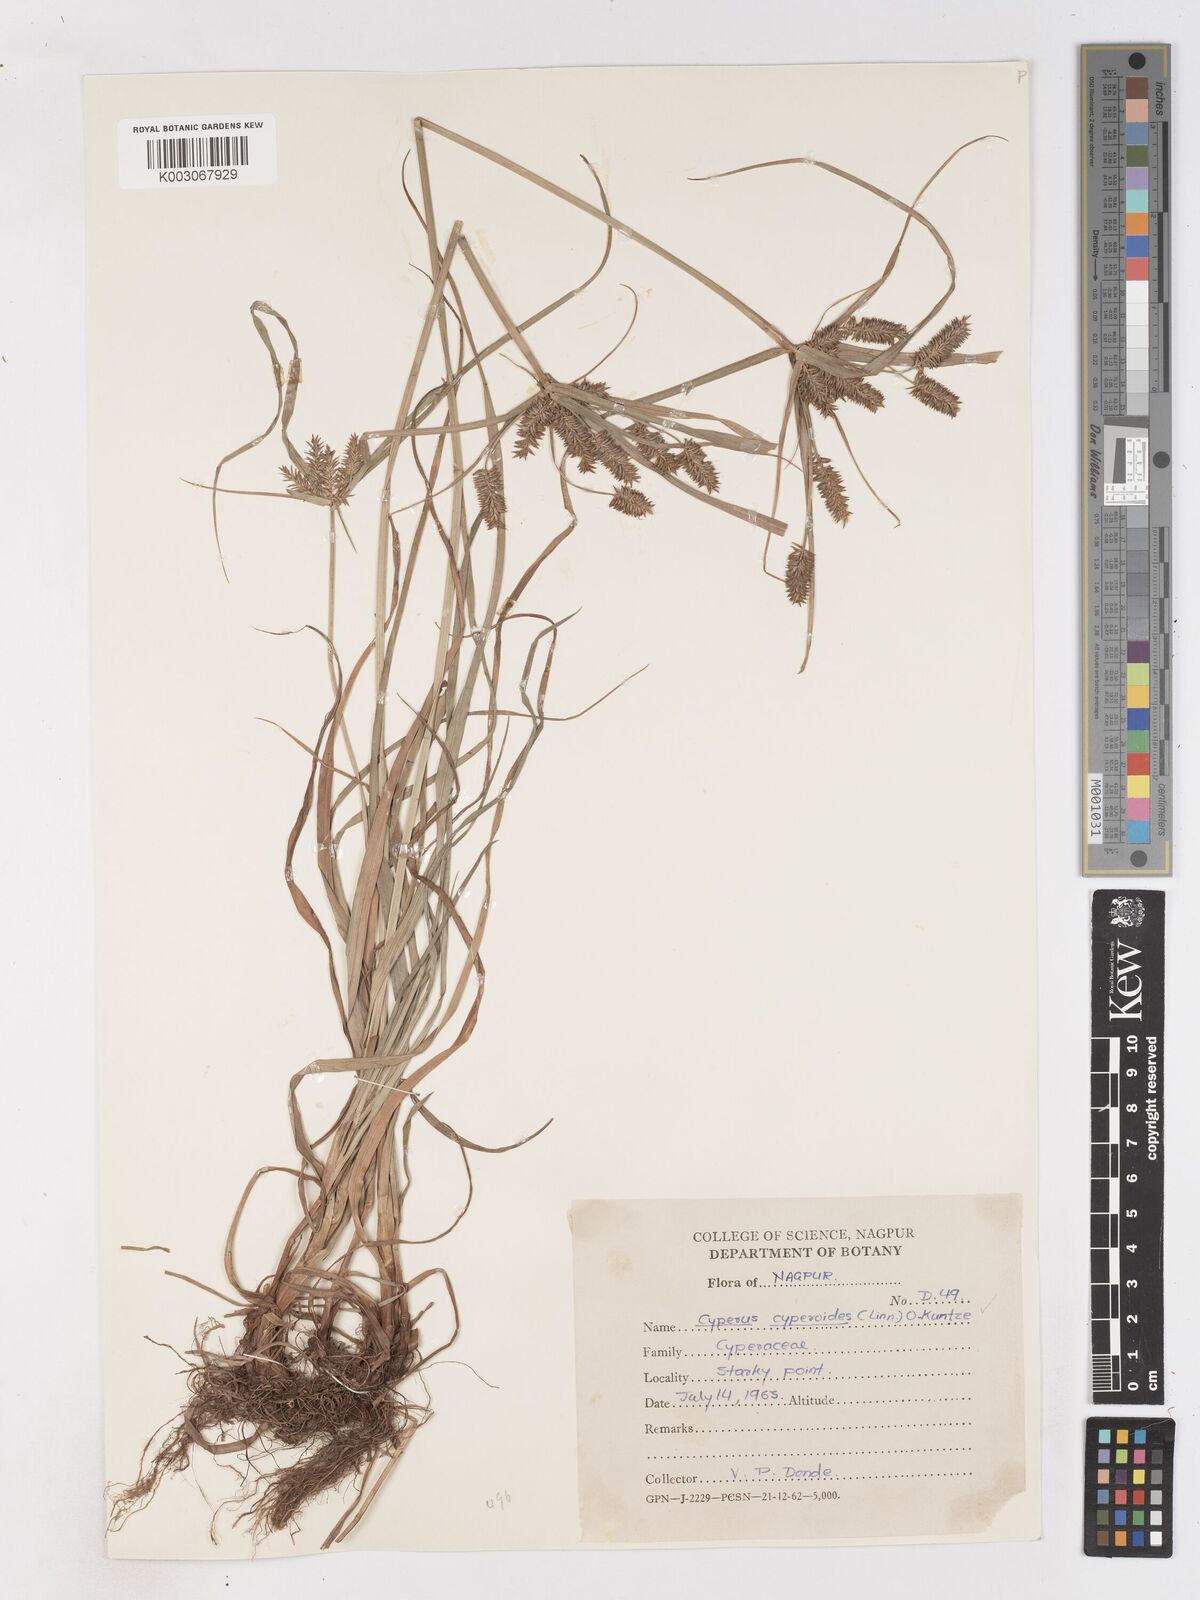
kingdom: Plantae
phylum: Tracheophyta
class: Liliopsida
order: Poales
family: Cyperaceae
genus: Cyperus
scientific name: Cyperus paniceus
